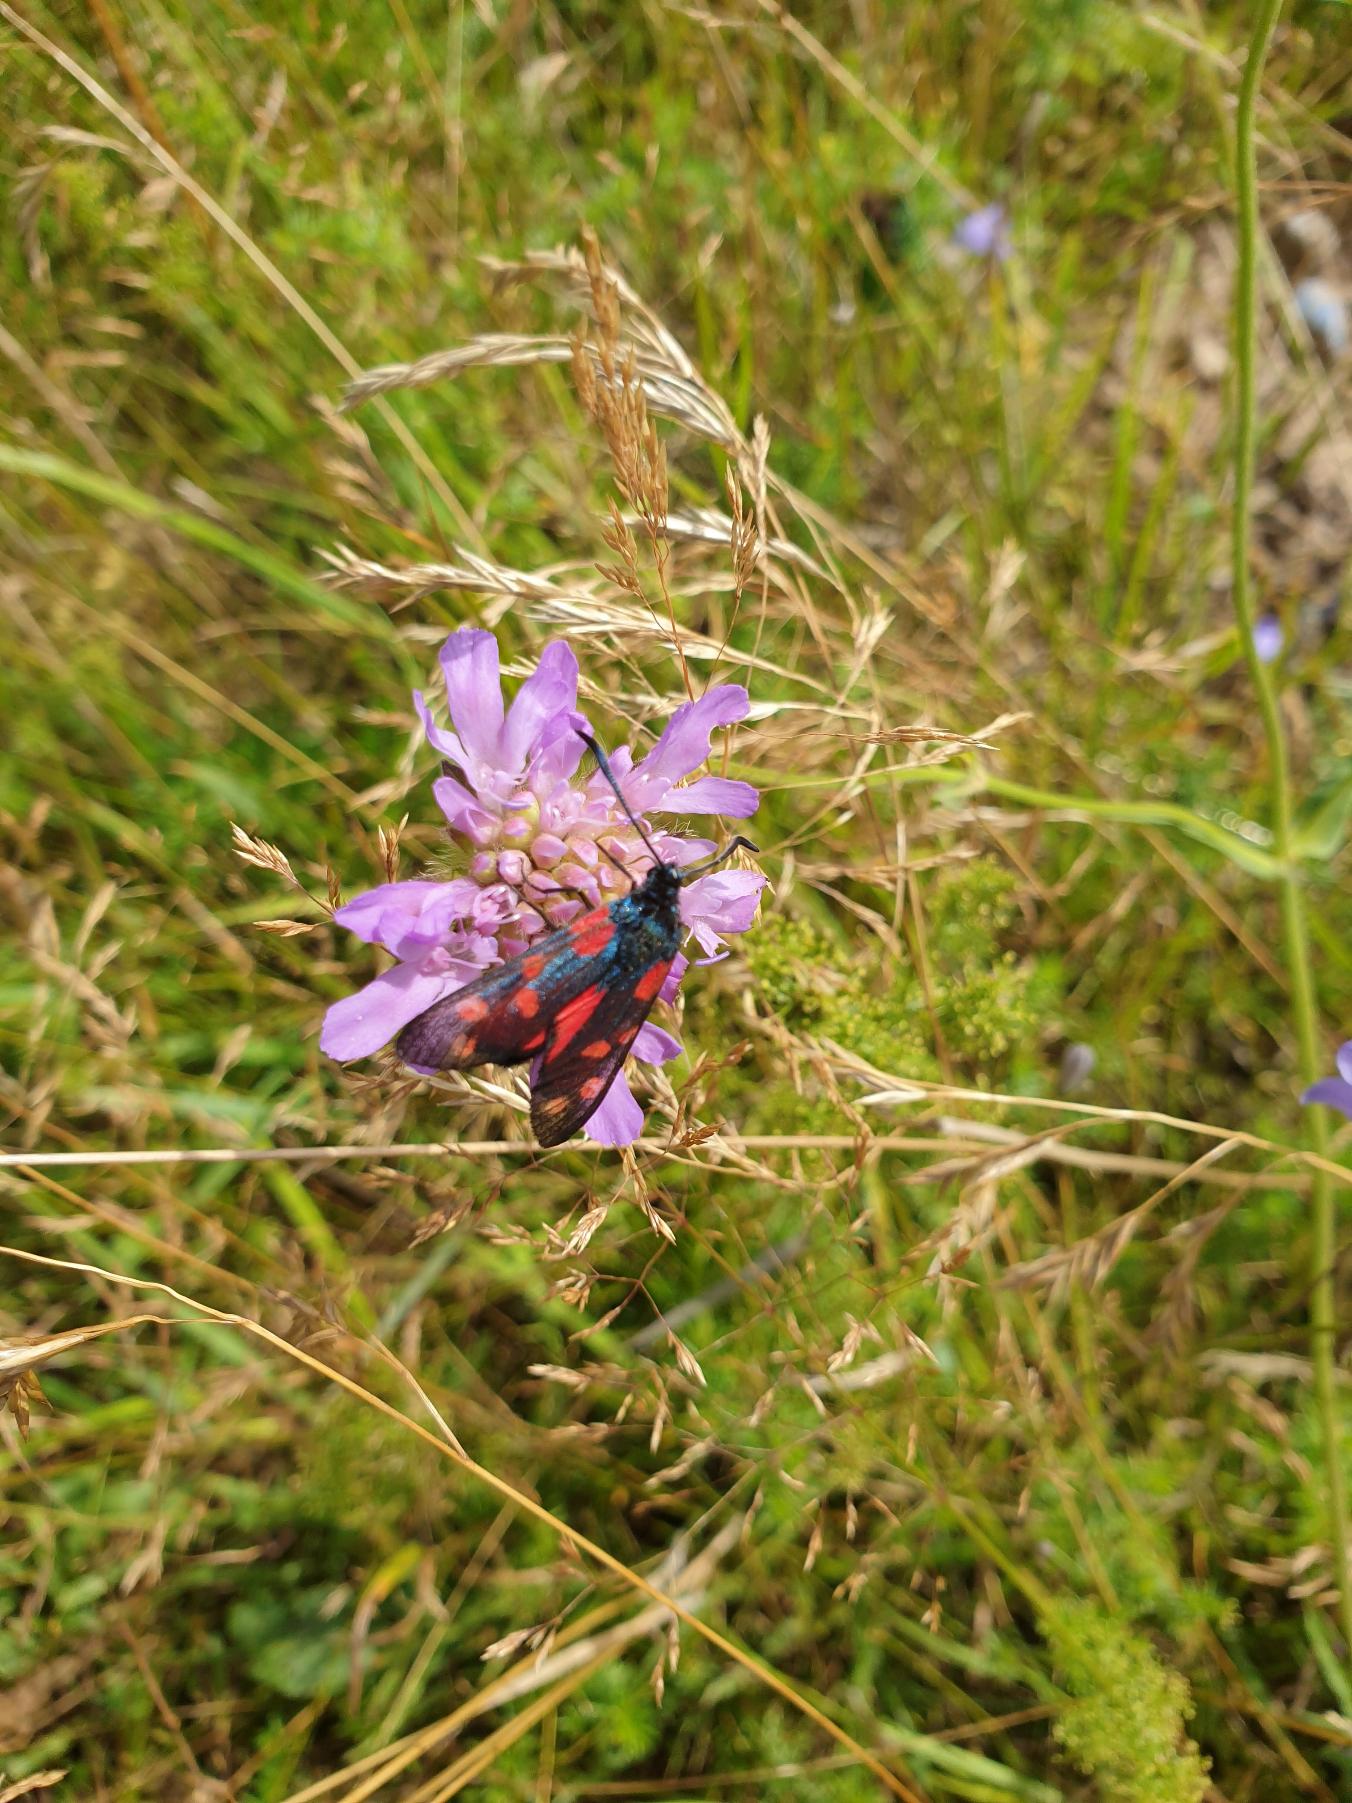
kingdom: Animalia
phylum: Arthropoda
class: Insecta
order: Lepidoptera
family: Zygaenidae
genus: Zygaena
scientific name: Zygaena filipendulae
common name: Seksplettet køllesværmer
